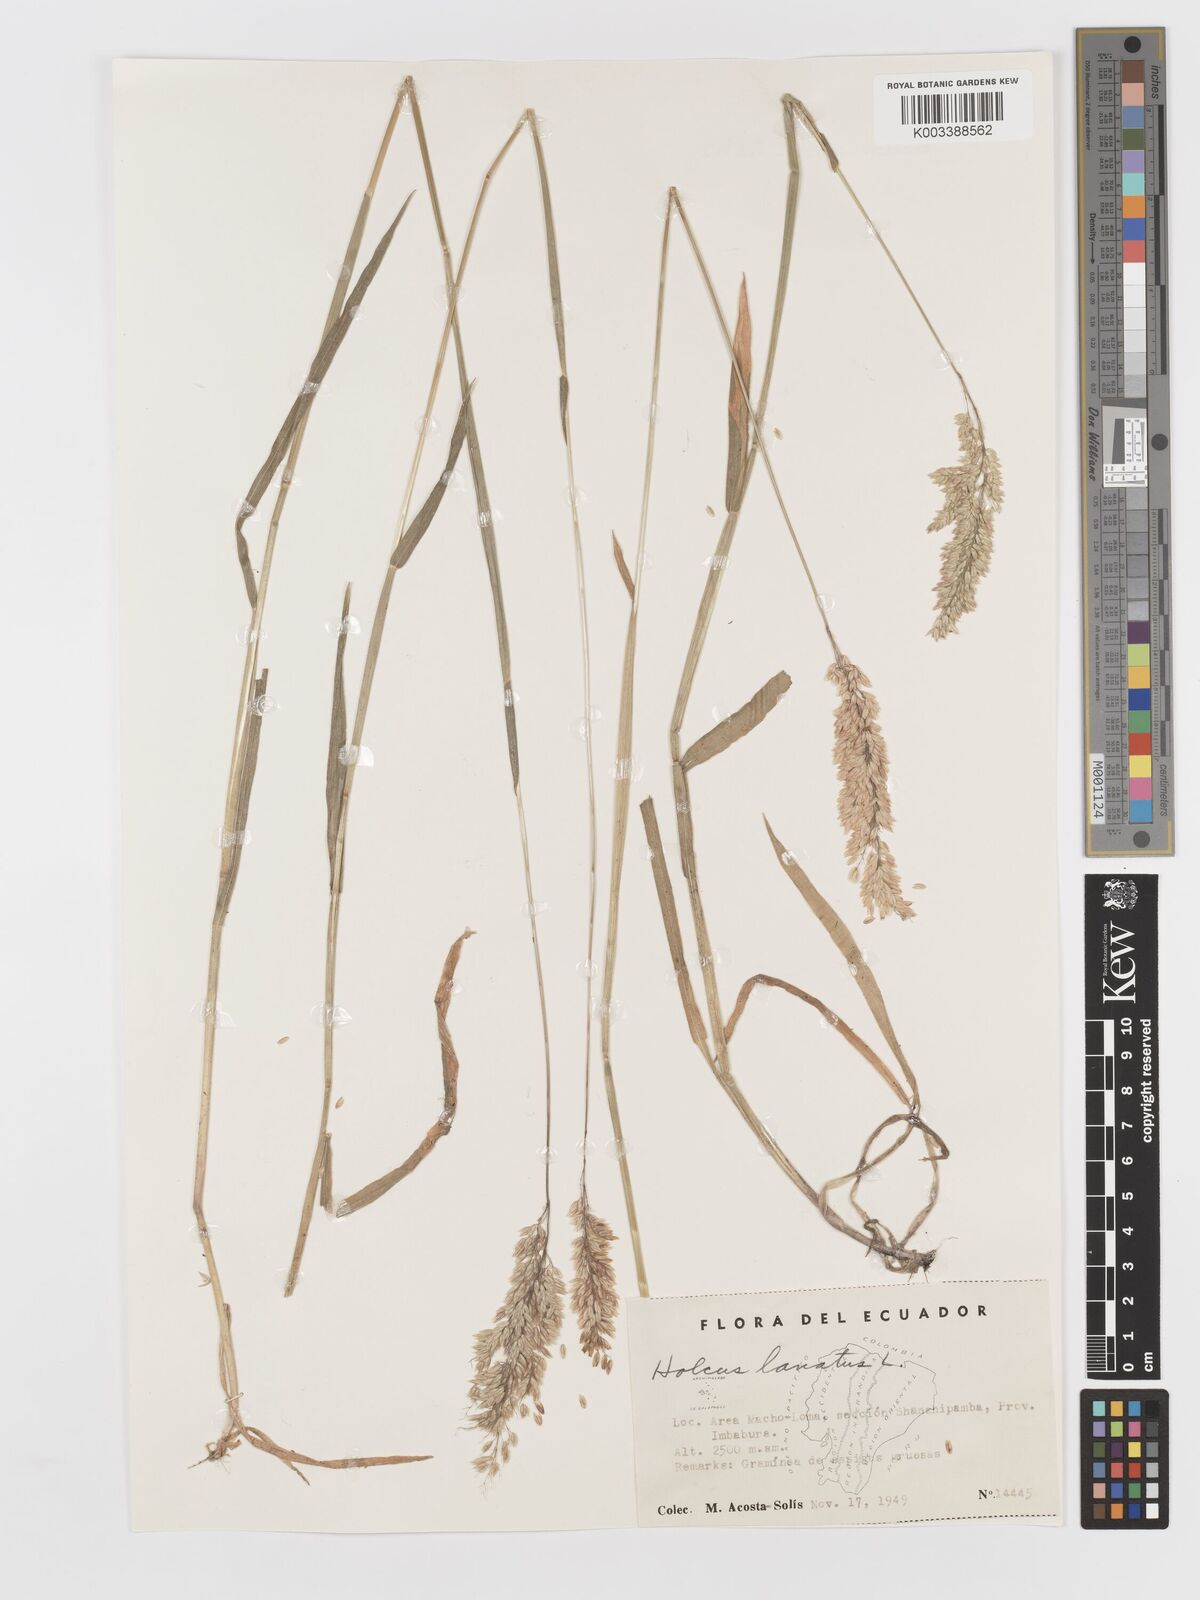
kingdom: Plantae
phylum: Tracheophyta
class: Liliopsida
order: Poales
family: Poaceae
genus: Holcus
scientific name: Holcus lanatus
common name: Yorkshire-fog
